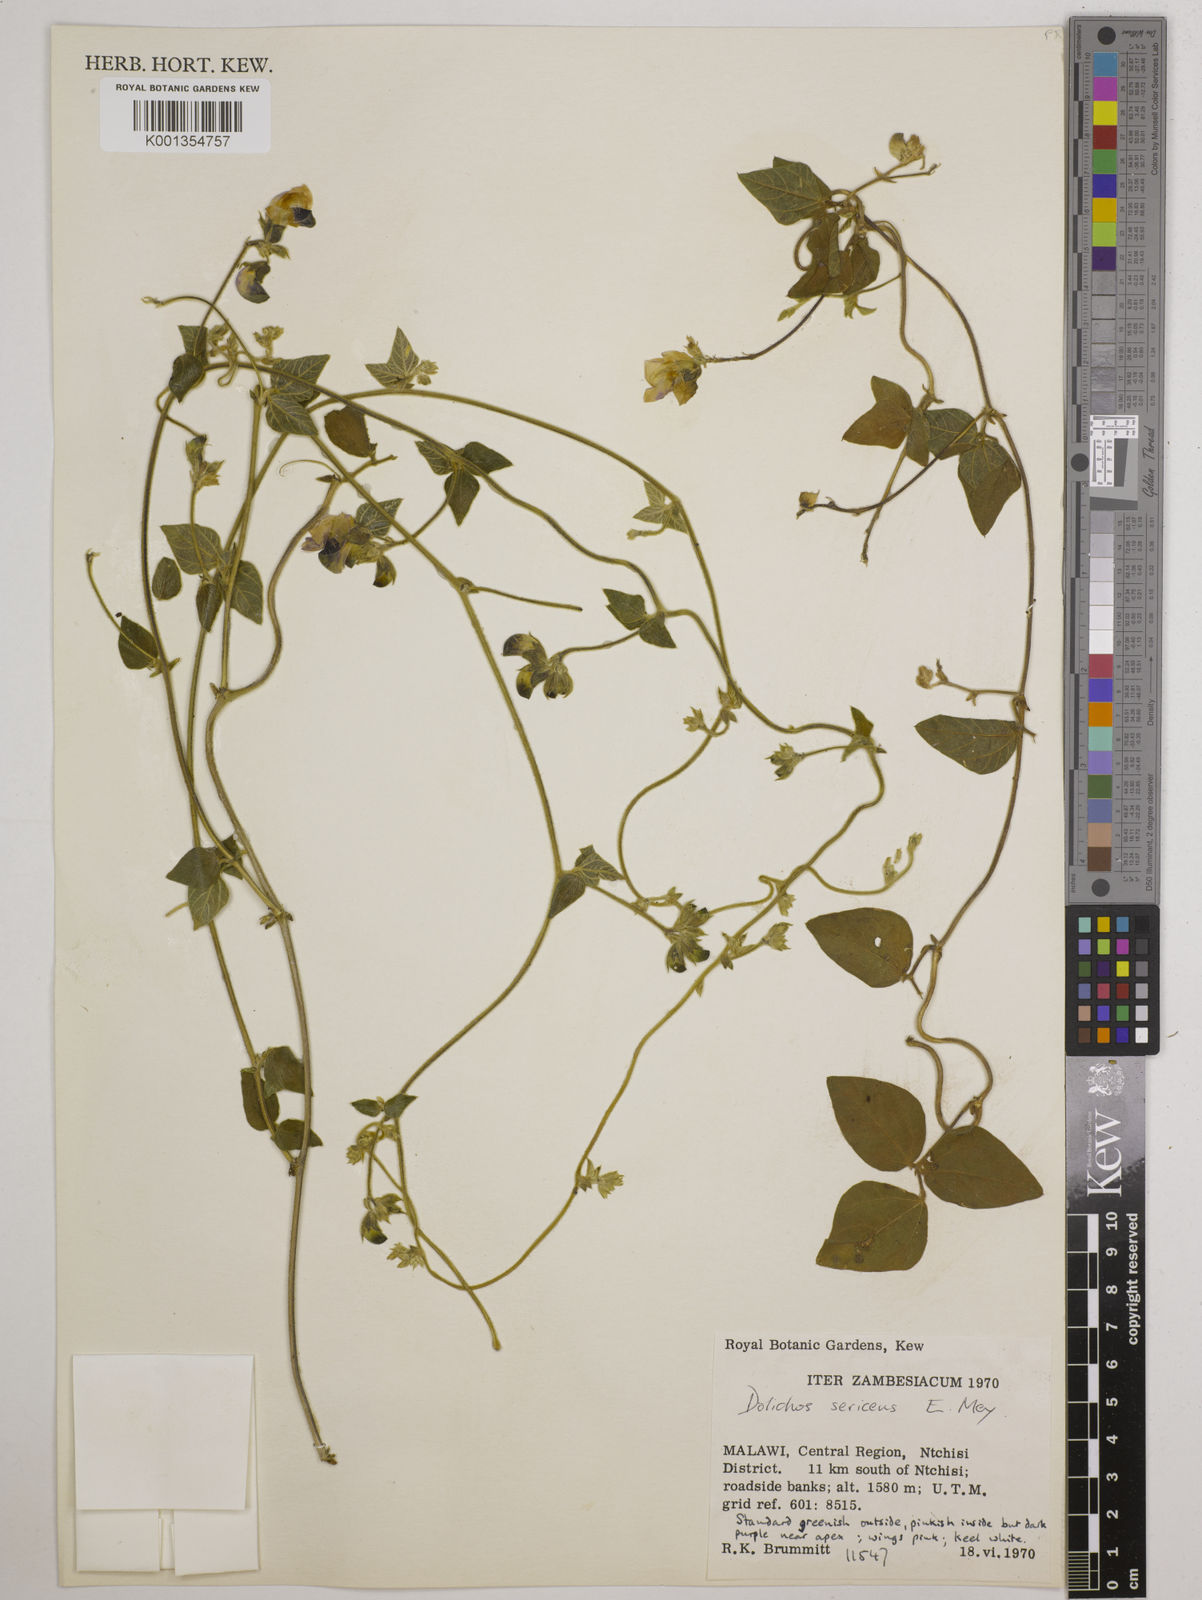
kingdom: Plantae
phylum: Tracheophyta
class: Magnoliopsida
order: Fabales
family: Fabaceae
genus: Dolichos
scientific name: Dolichos
